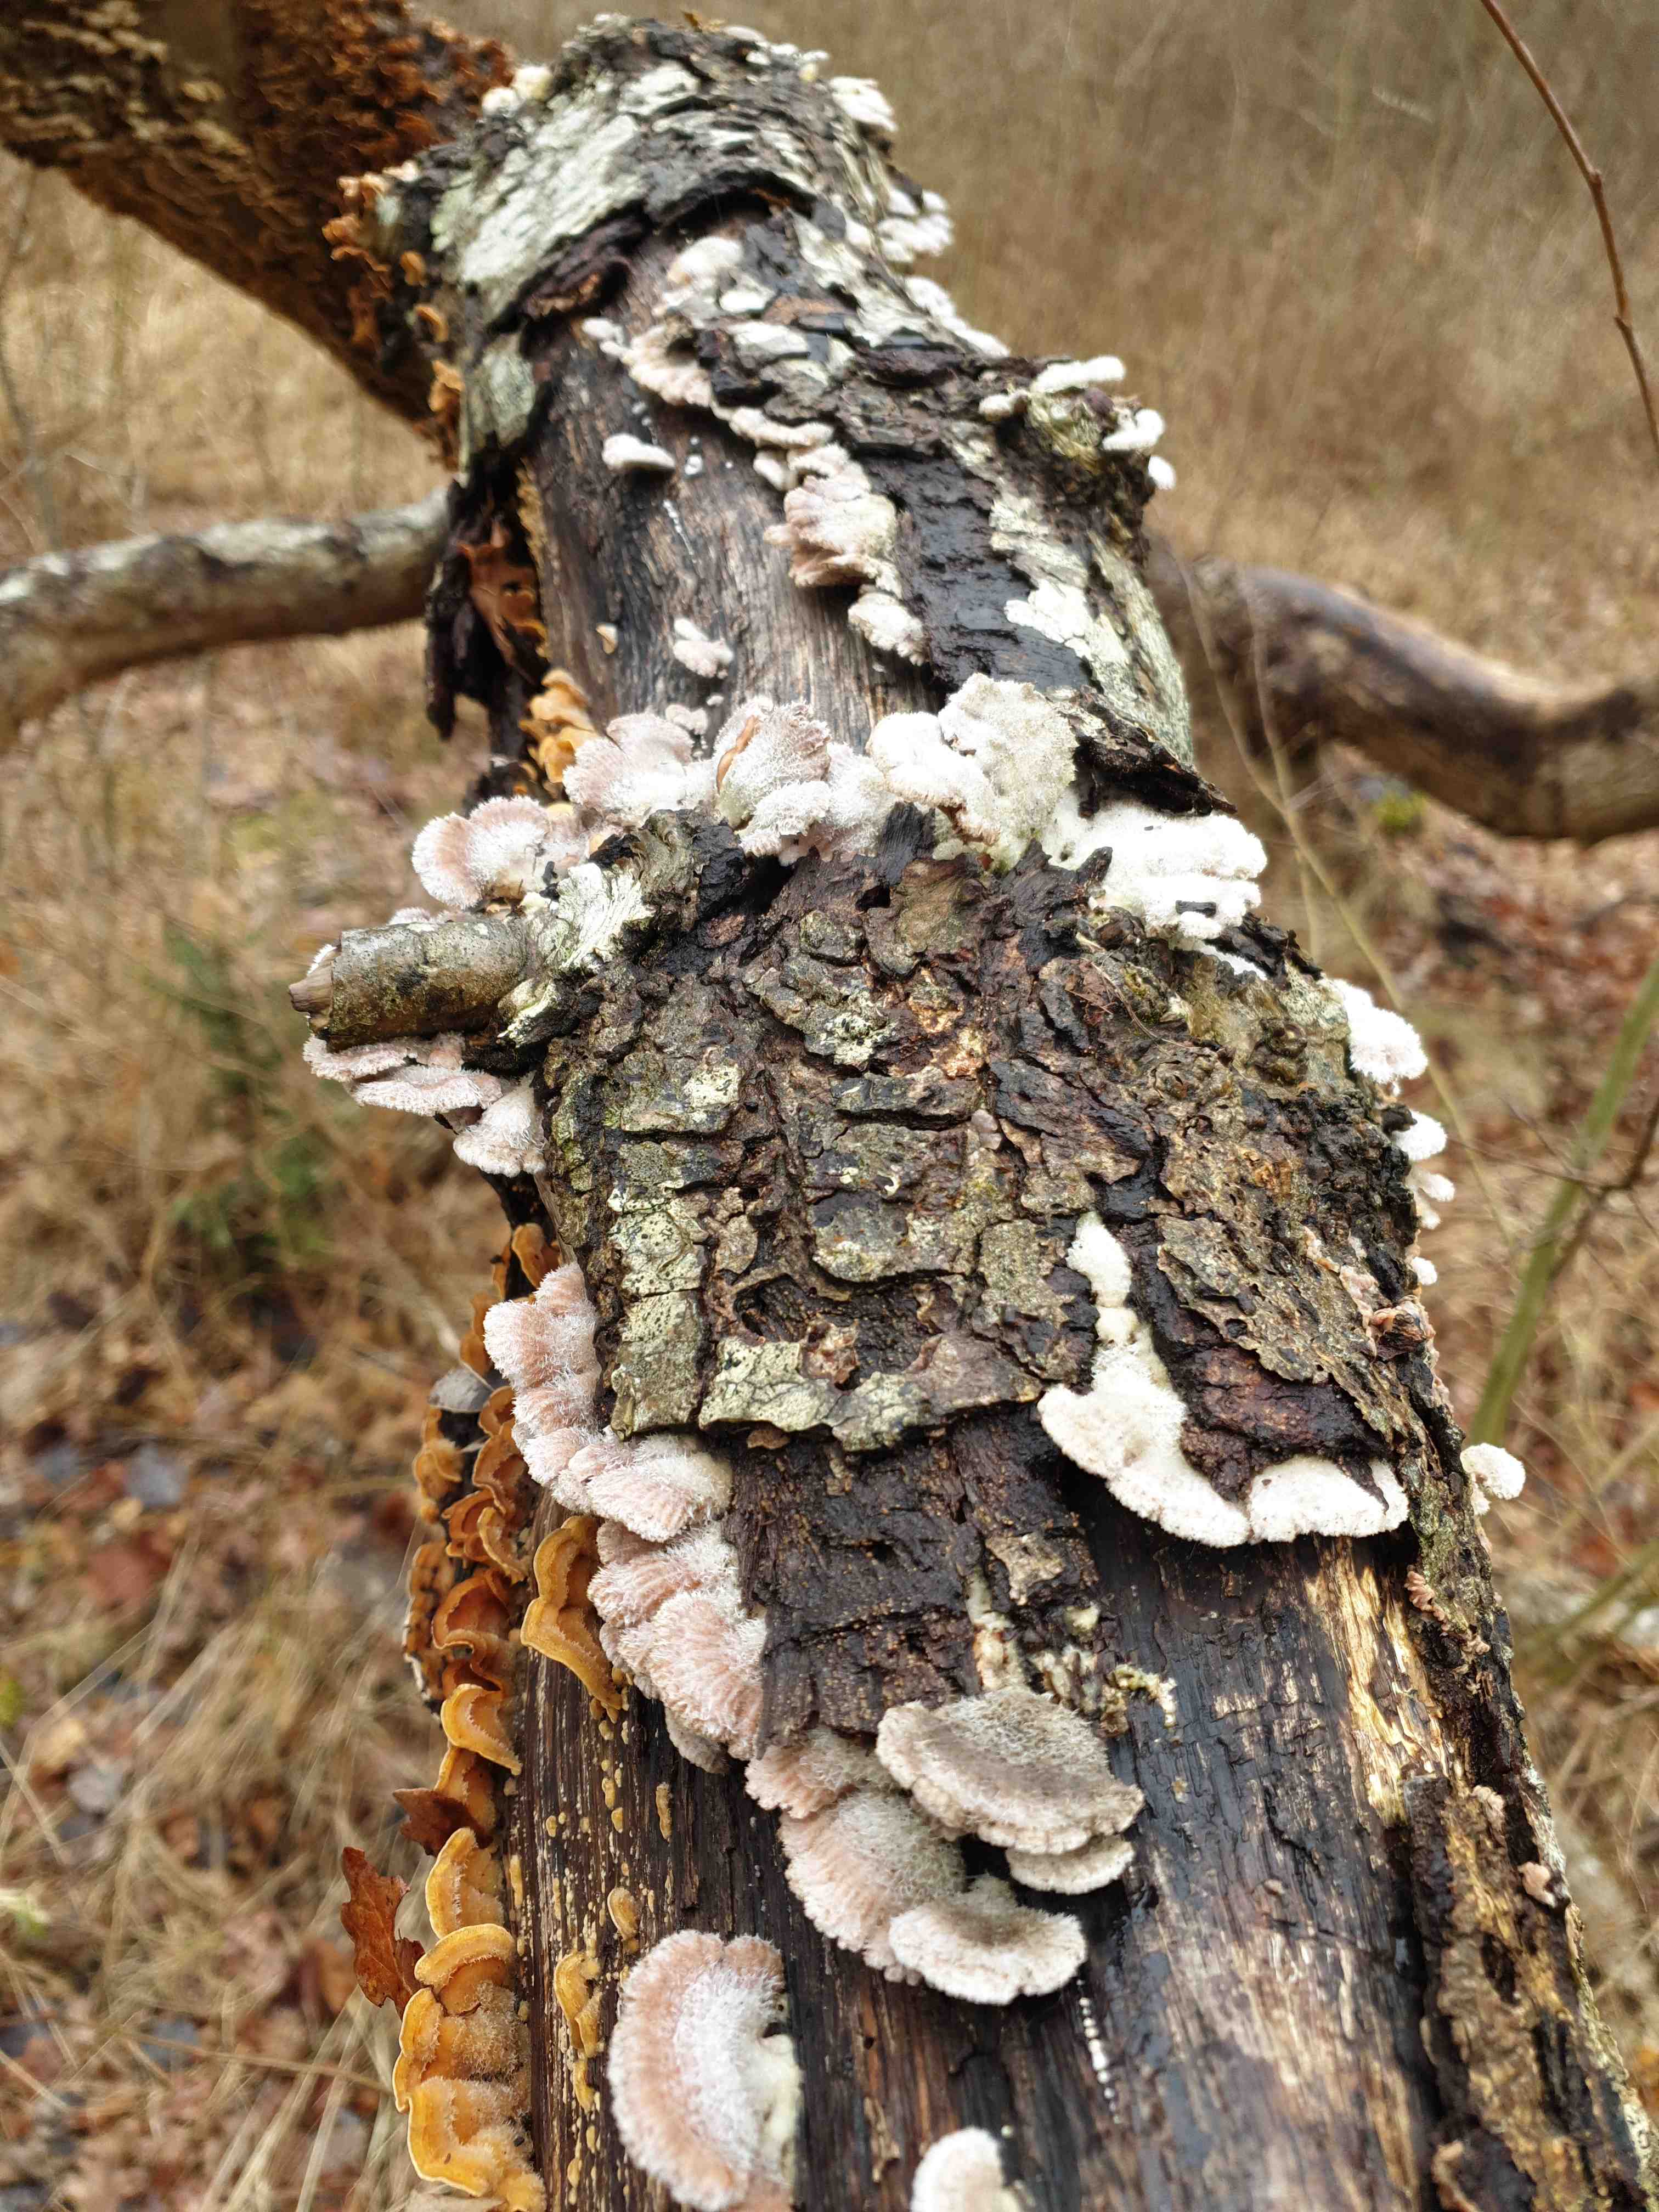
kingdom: Fungi
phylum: Basidiomycota
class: Agaricomycetes
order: Agaricales
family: Schizophyllaceae
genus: Schizophyllum
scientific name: Schizophyllum commune
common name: kløvblad
